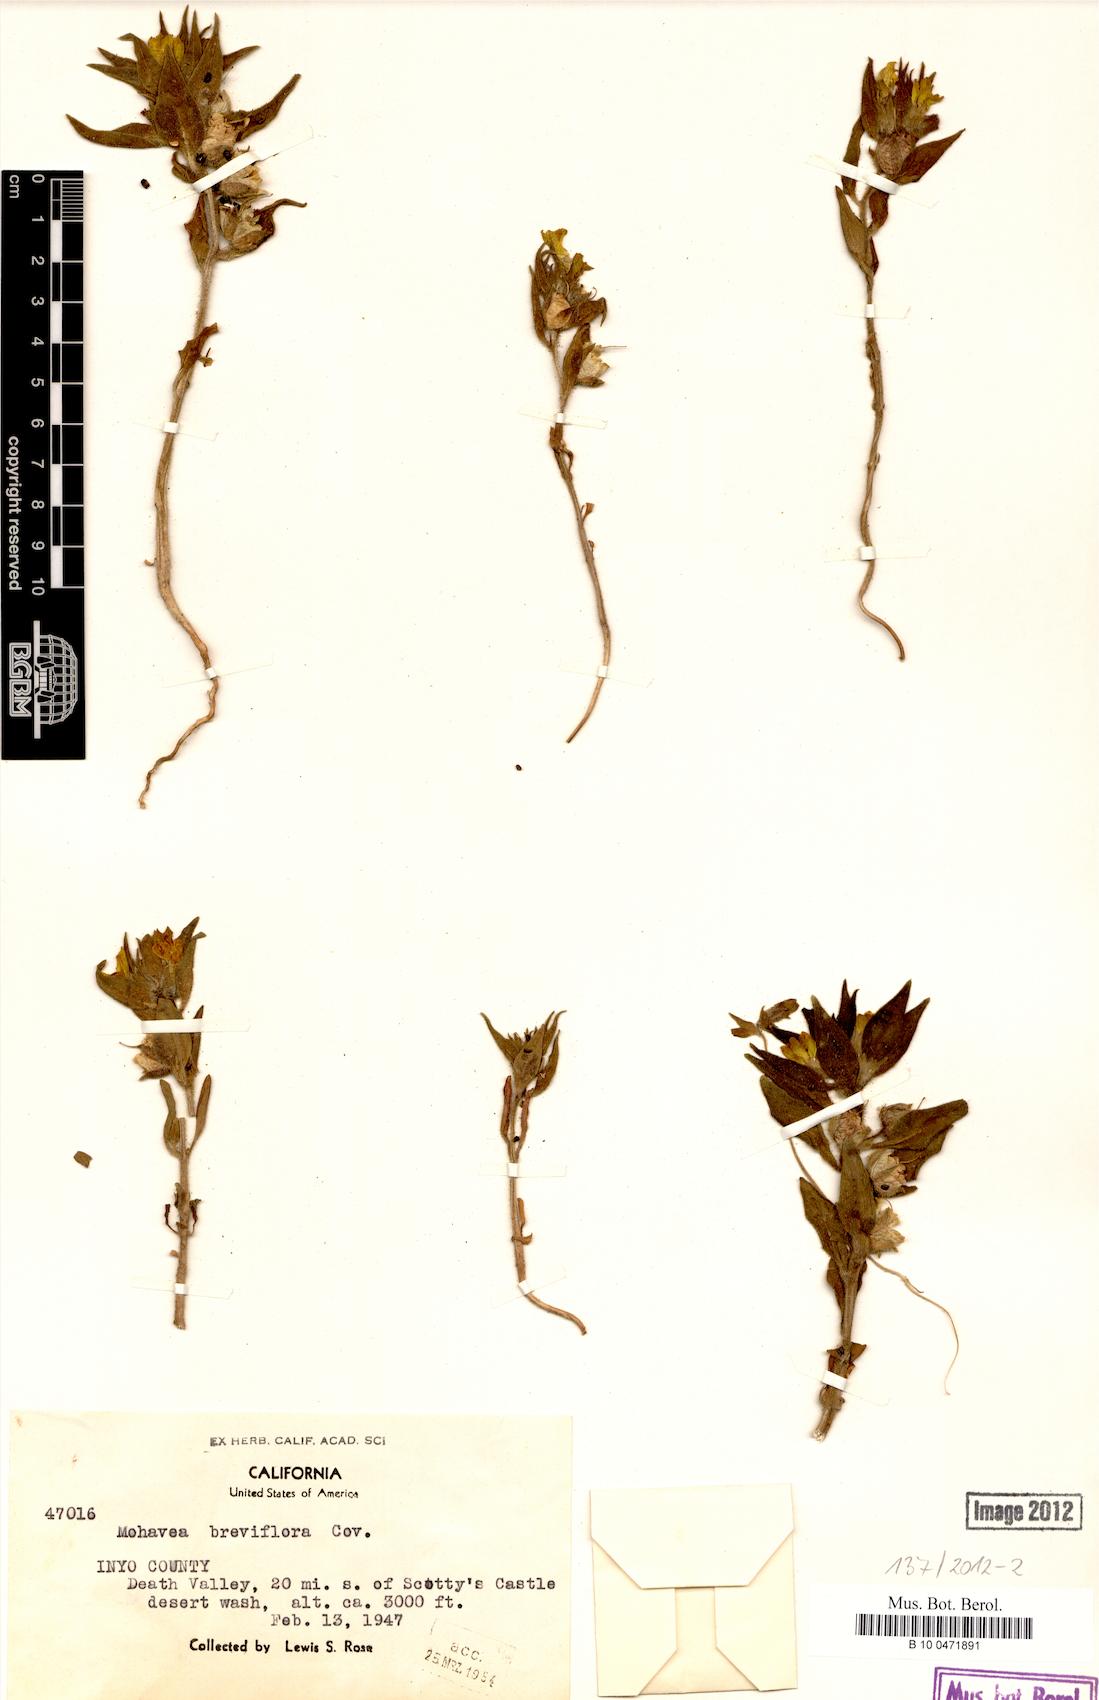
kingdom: Plantae
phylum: Tracheophyta
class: Magnoliopsida
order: Lamiales
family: Plantaginaceae
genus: Mohavea
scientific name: Mohavea breviflora
